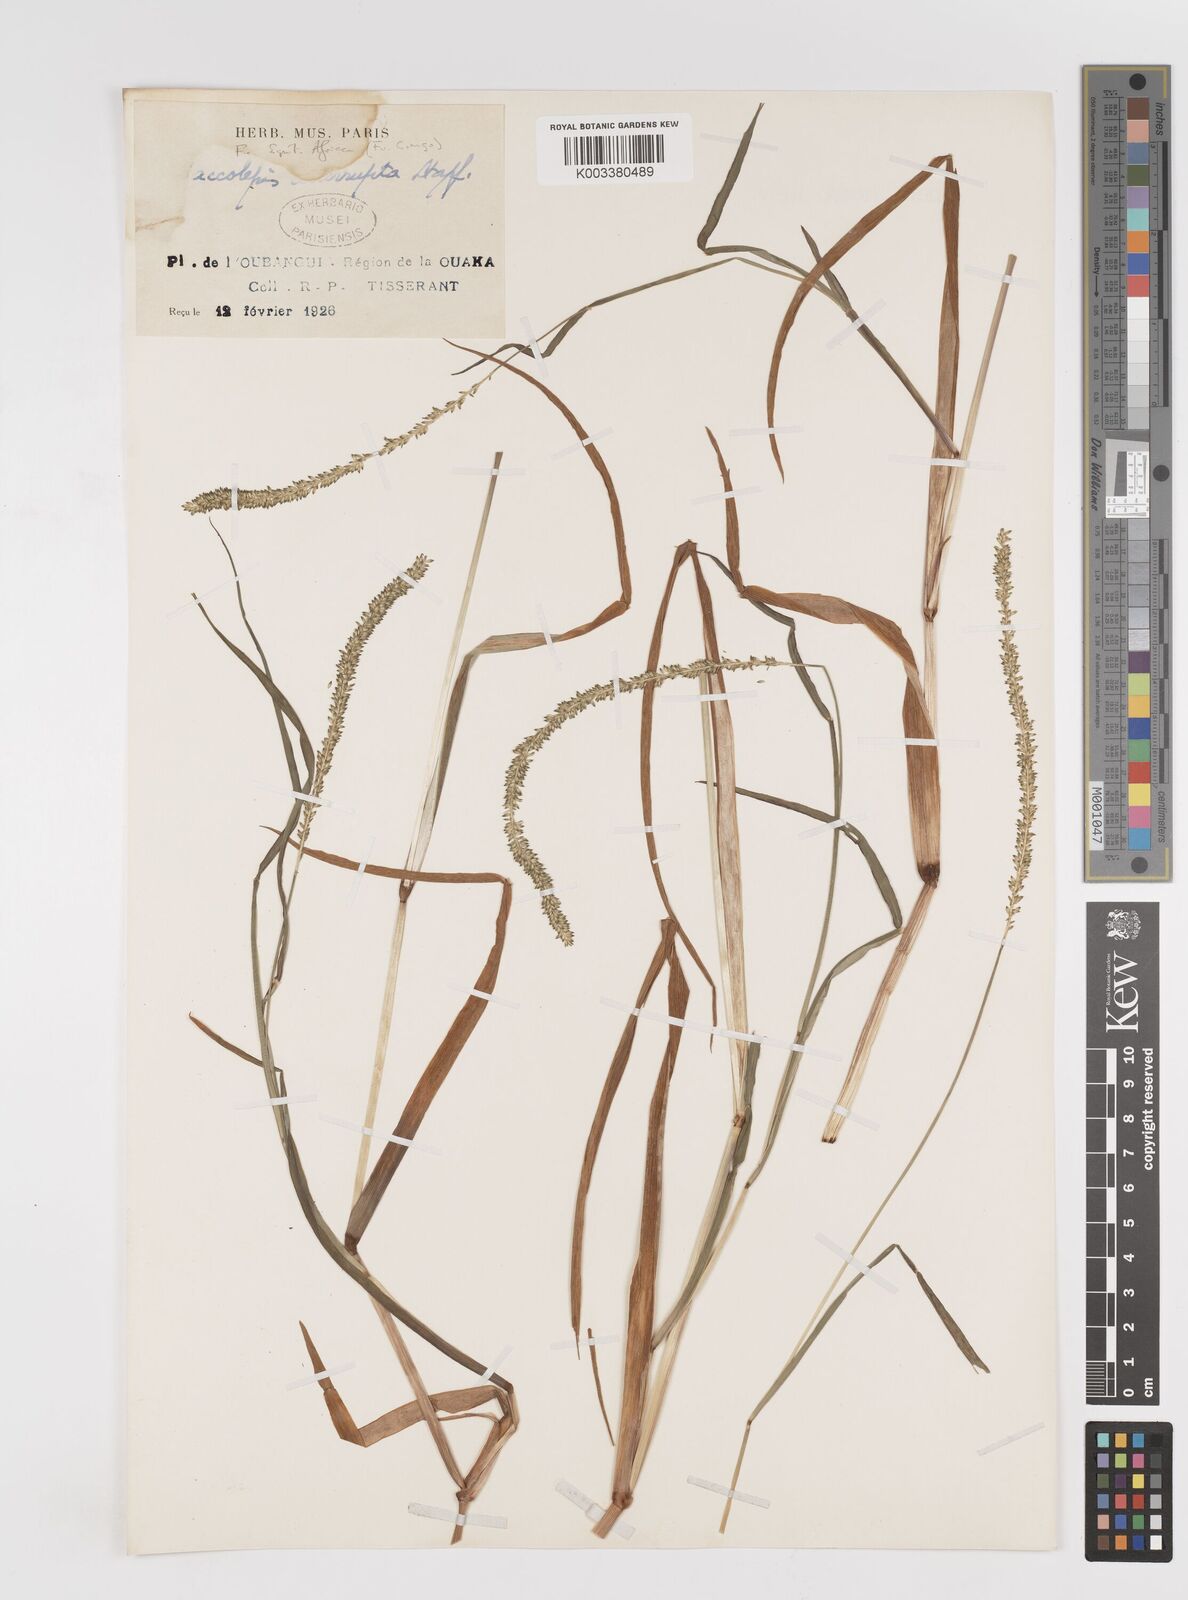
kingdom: Plantae
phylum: Tracheophyta
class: Liliopsida
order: Poales
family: Poaceae
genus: Sacciolepis
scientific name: Sacciolepis africana
